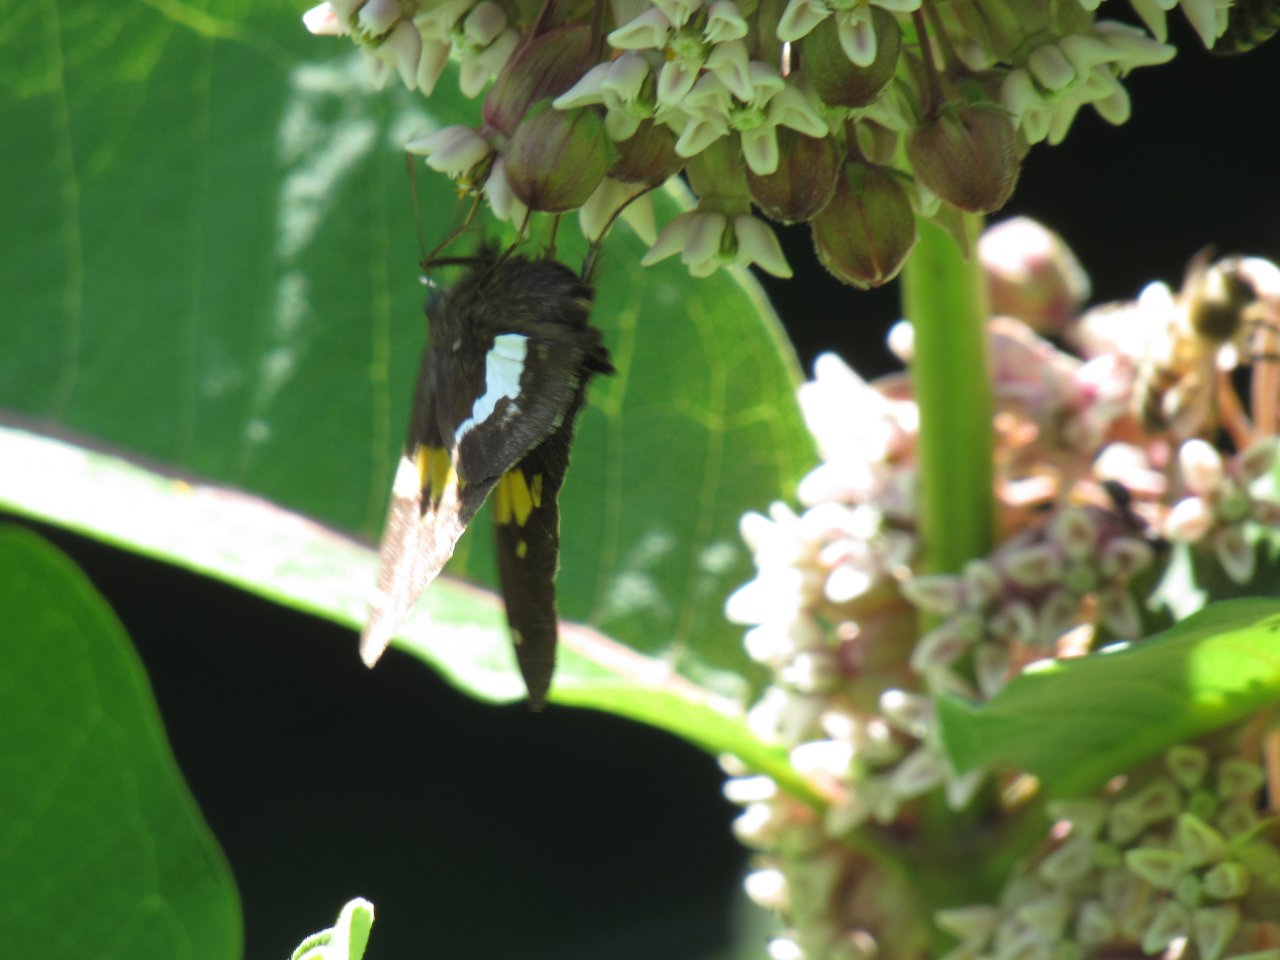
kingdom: Animalia
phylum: Arthropoda
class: Insecta
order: Lepidoptera
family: Hesperiidae
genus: Epargyreus
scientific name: Epargyreus clarus
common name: Silver-spotted Skipper
